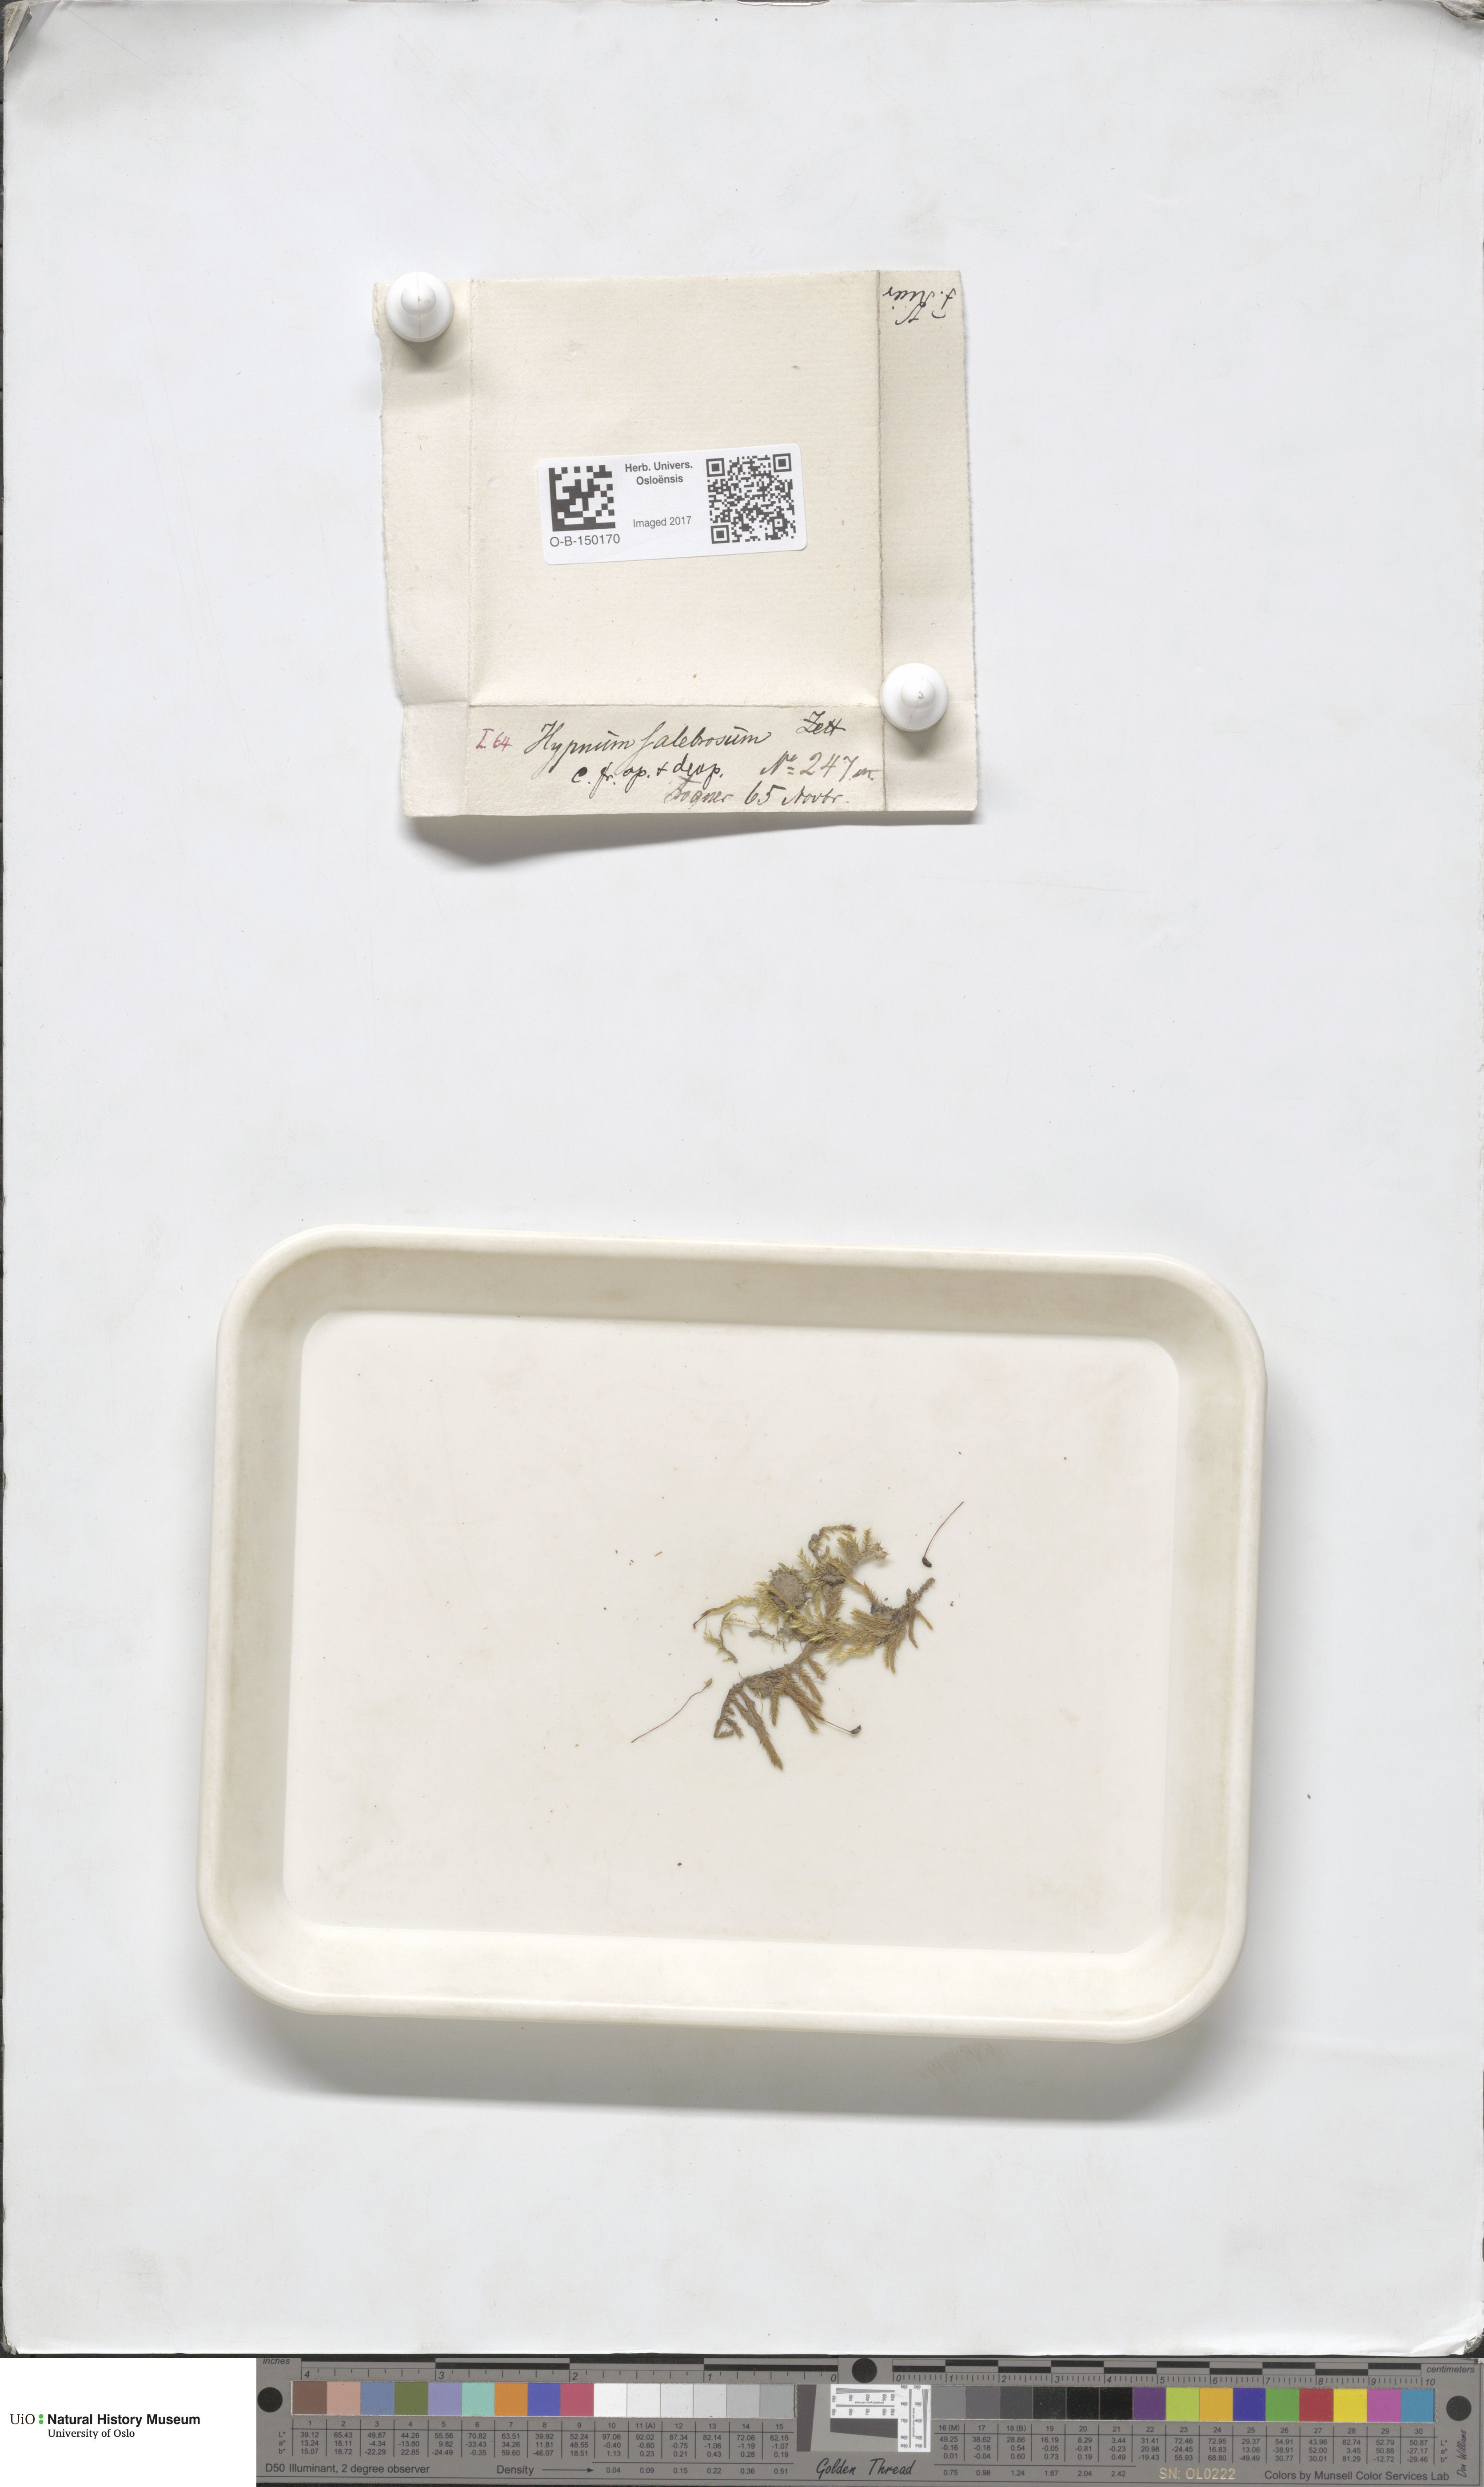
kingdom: Plantae
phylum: Bryophyta
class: Bryopsida
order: Hypnales
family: Brachytheciaceae
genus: Brachythecium
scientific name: Brachythecium salebrosum
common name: Smooth-stalk feather-moss
